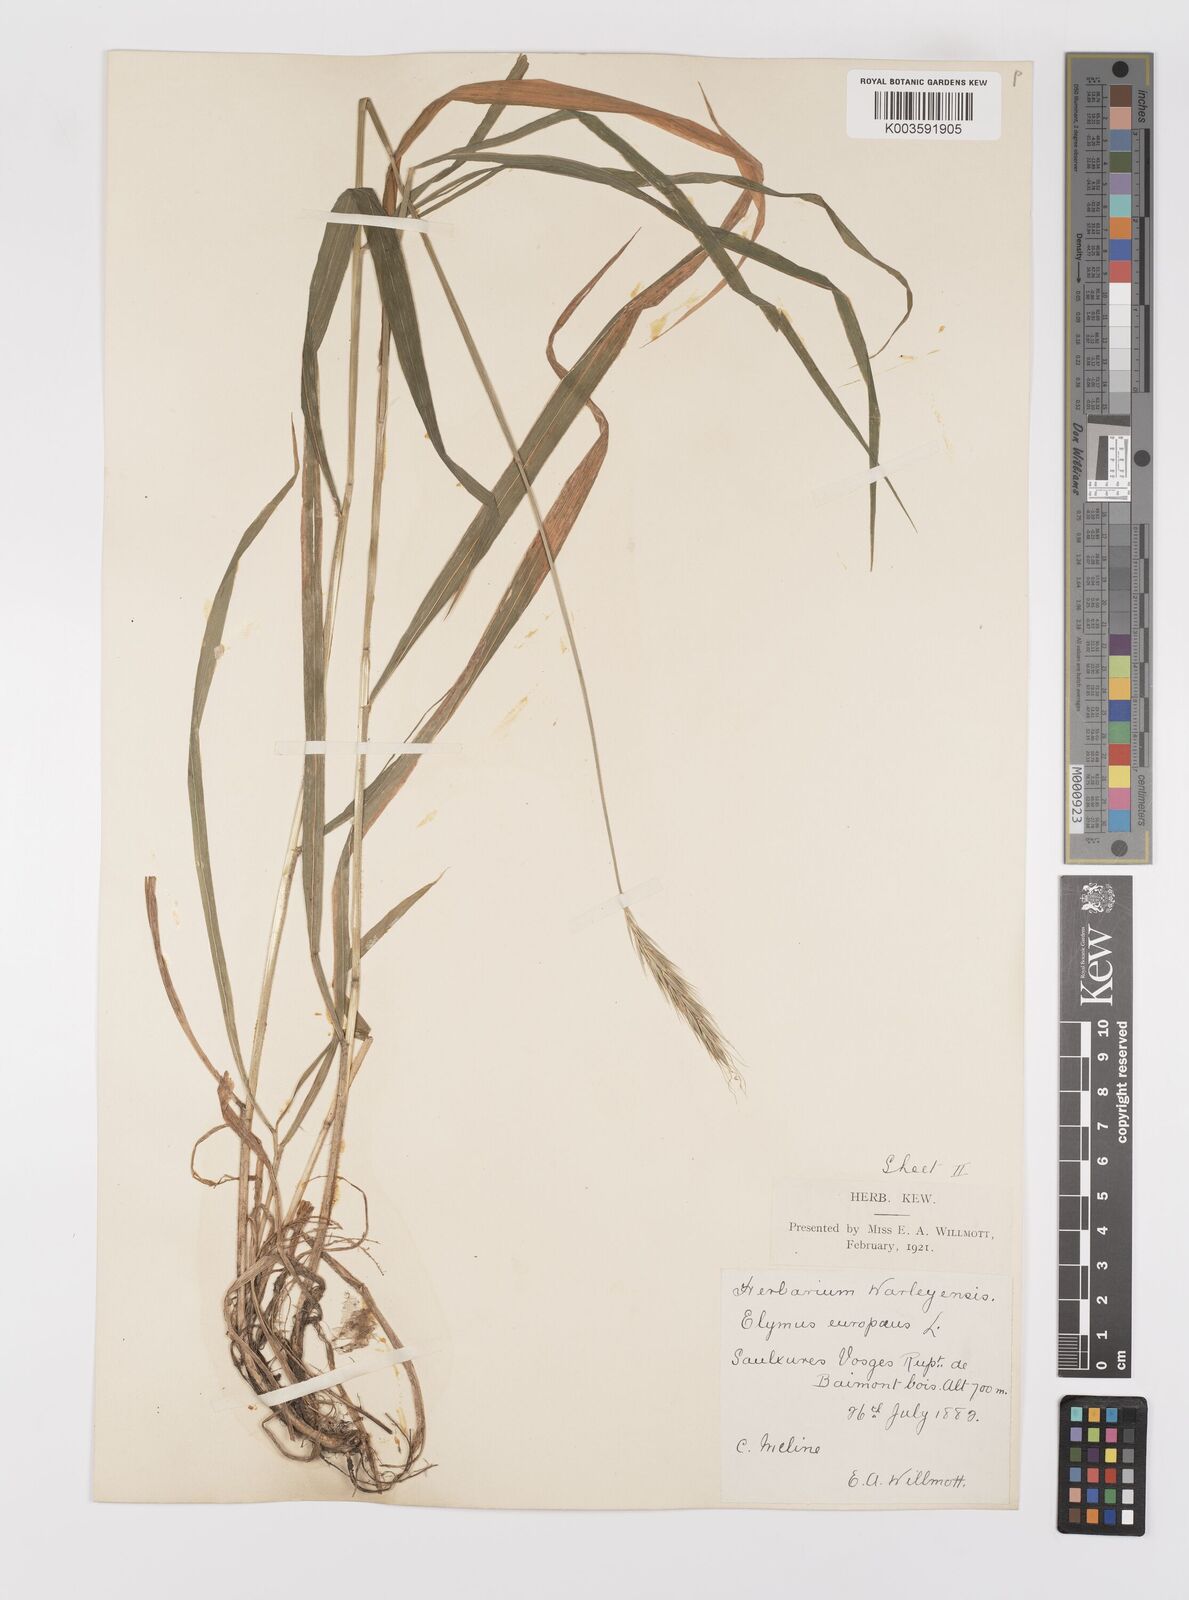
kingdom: Plantae
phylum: Tracheophyta
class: Liliopsida
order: Poales
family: Poaceae
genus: Hordelymus
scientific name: Hordelymus europaeus
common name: Wood-barley
